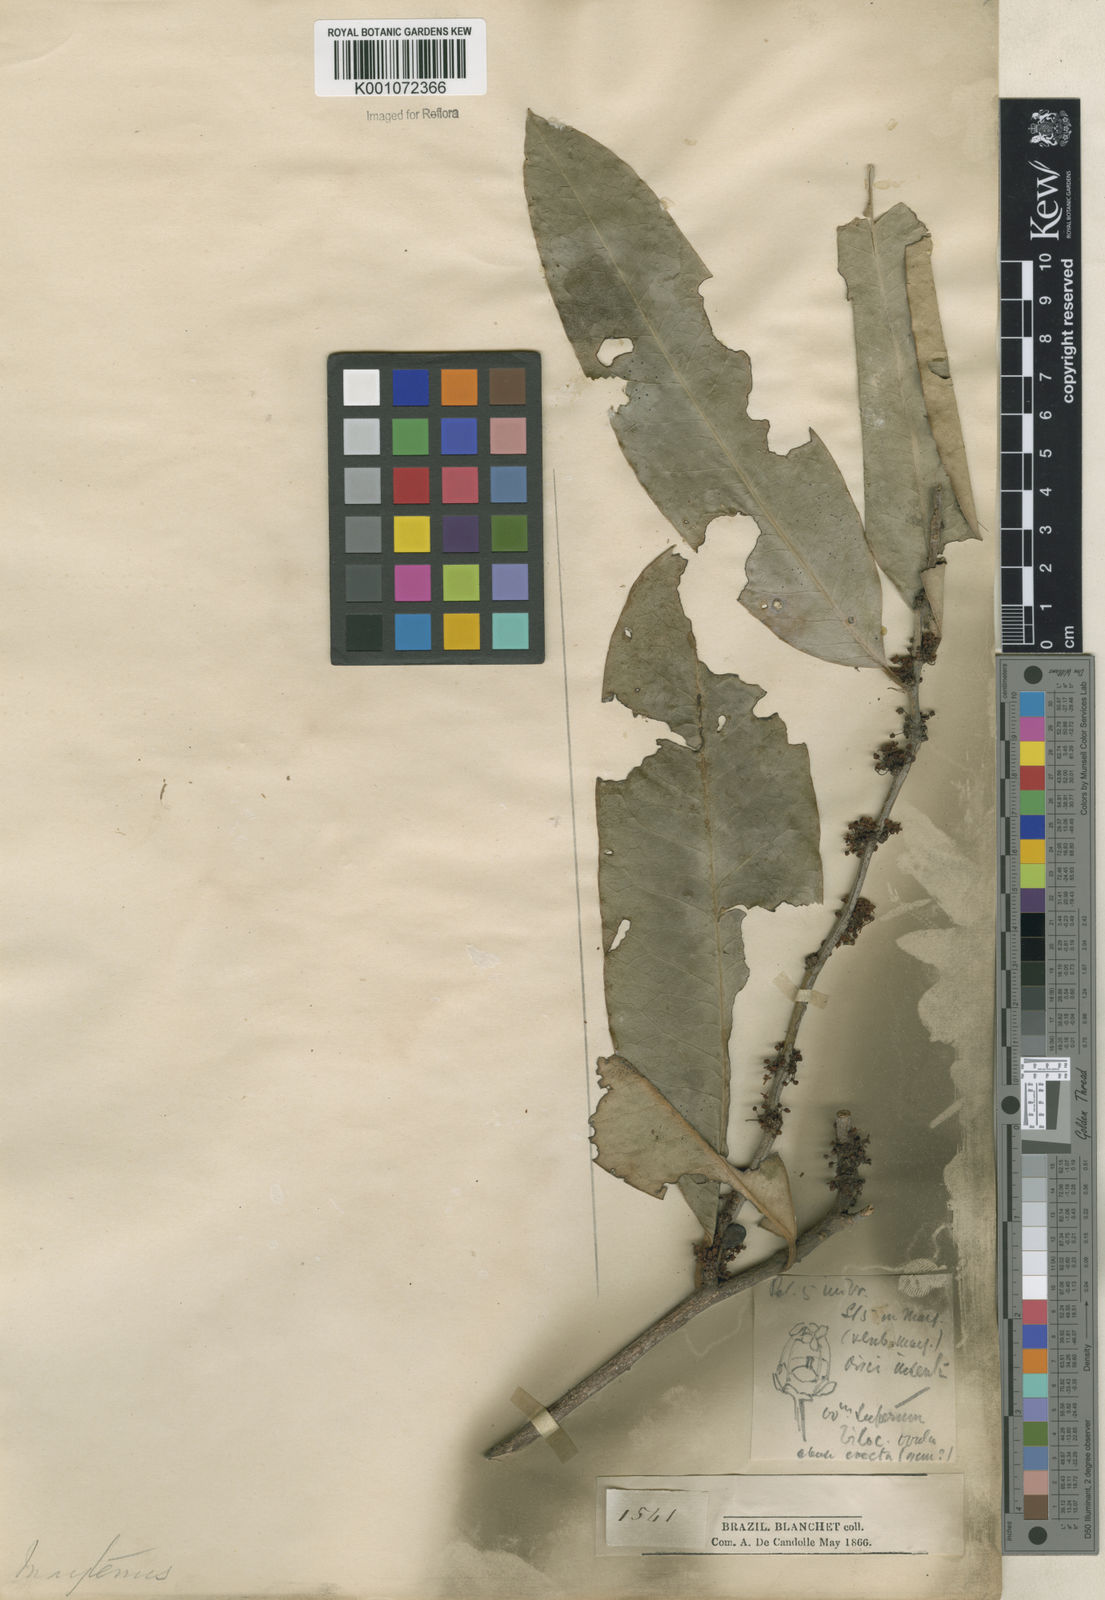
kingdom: Plantae
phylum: Tracheophyta
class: Magnoliopsida
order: Celastrales
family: Celastraceae
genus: Maytenus
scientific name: Maytenus
